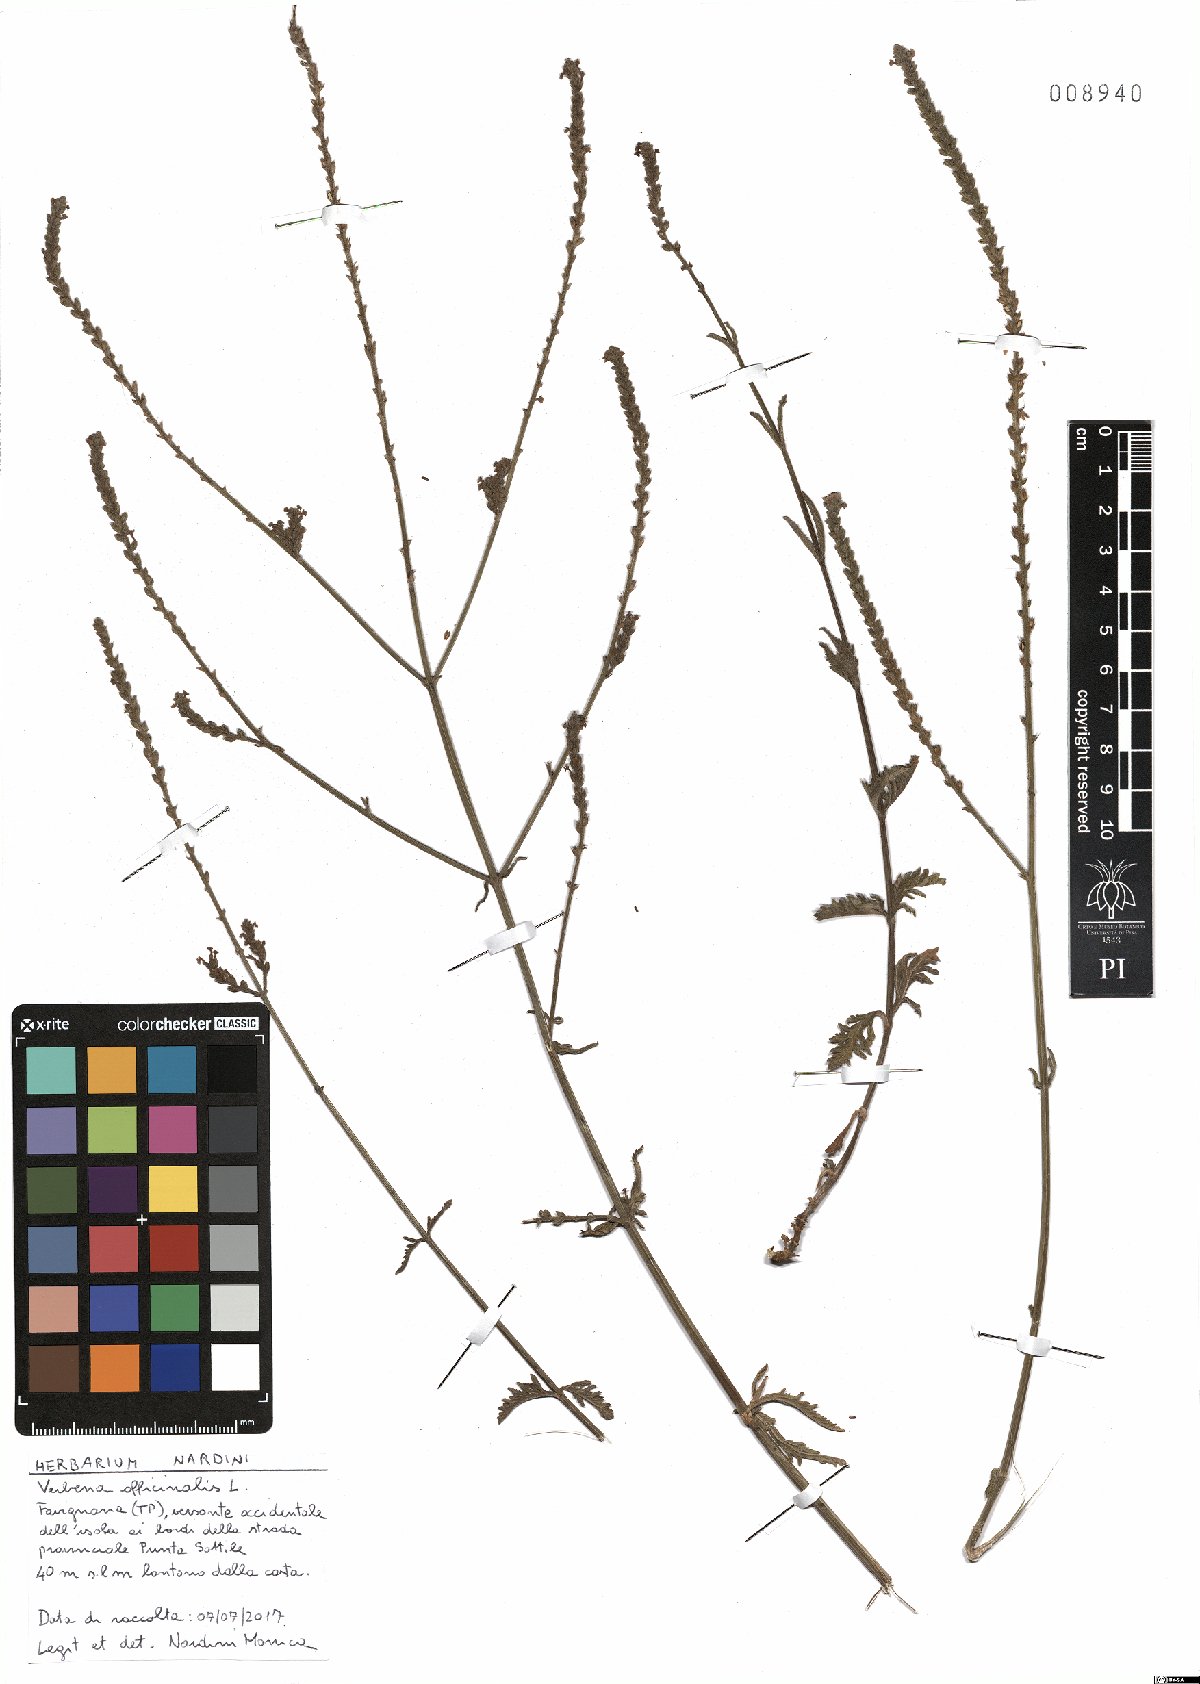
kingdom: Plantae
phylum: Tracheophyta
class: Magnoliopsida
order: Lamiales
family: Verbenaceae
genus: Verbena
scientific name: Verbena officinalis
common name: Vervain
